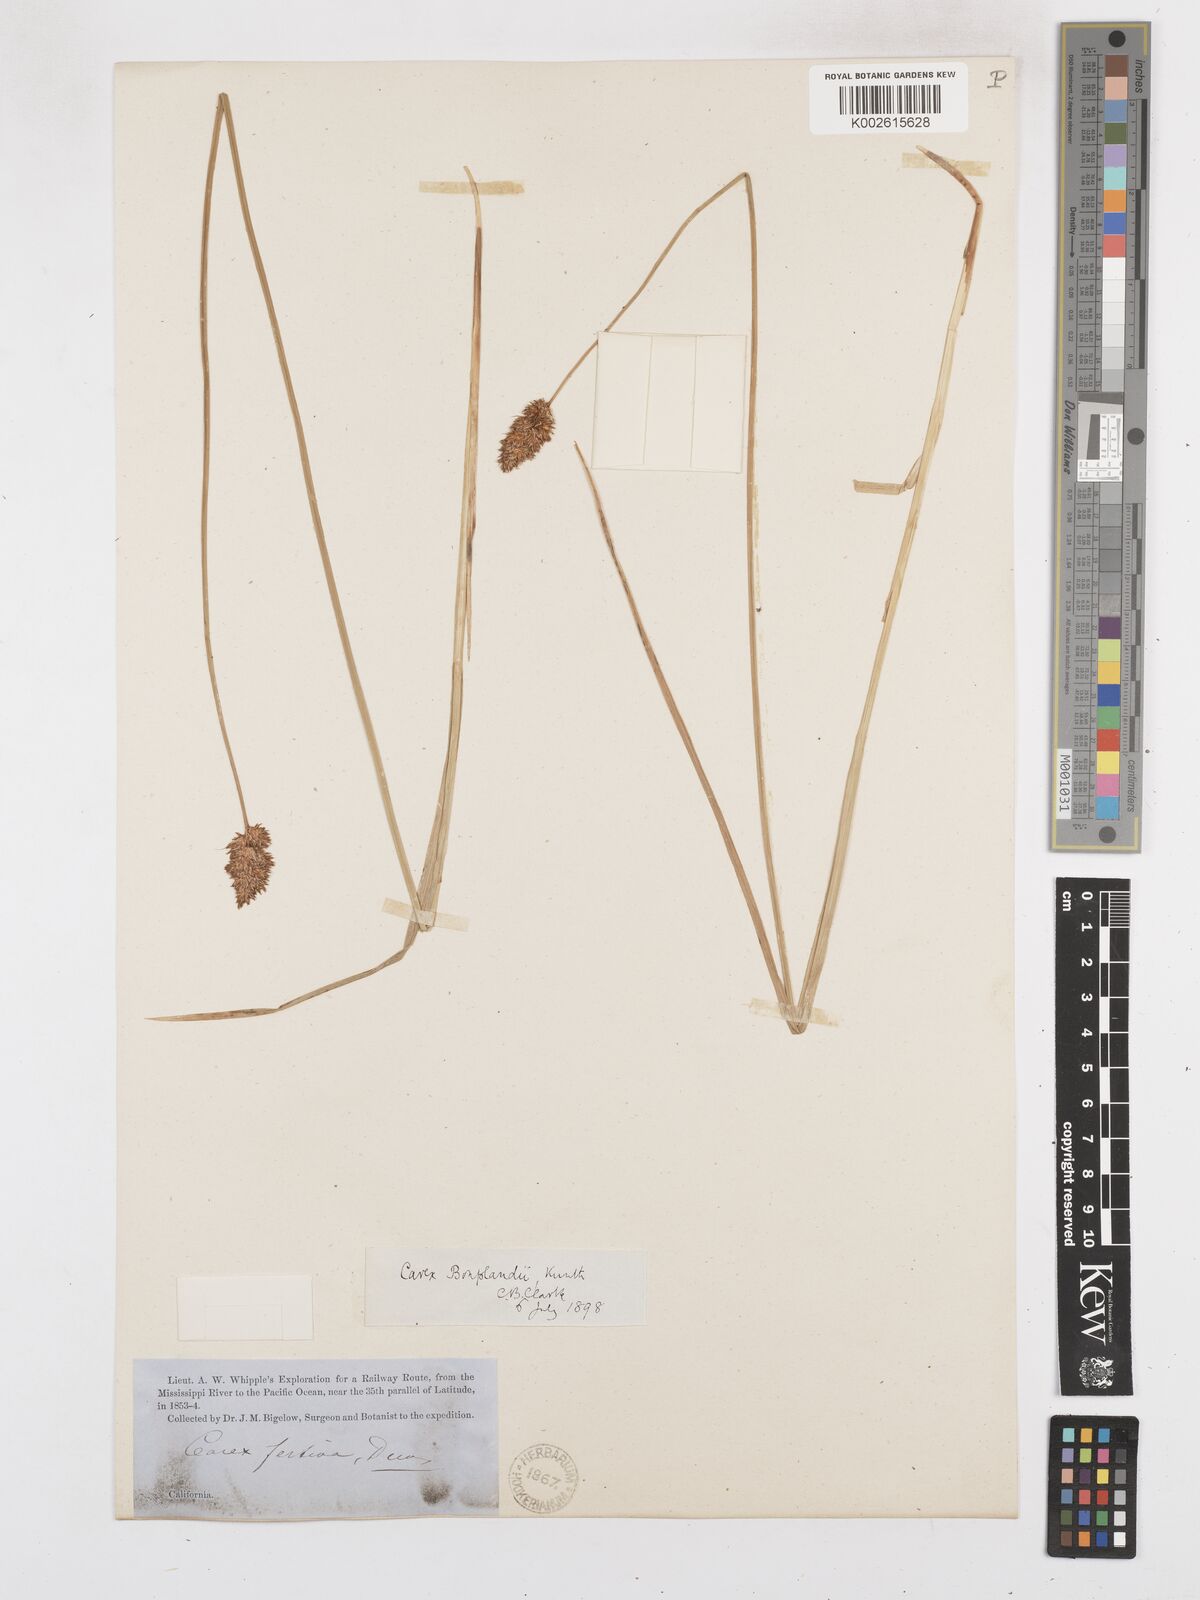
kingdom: Plantae
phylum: Tracheophyta
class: Liliopsida
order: Poales
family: Cyperaceae
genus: Carex
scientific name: Carex illota
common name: Sheep sedge
